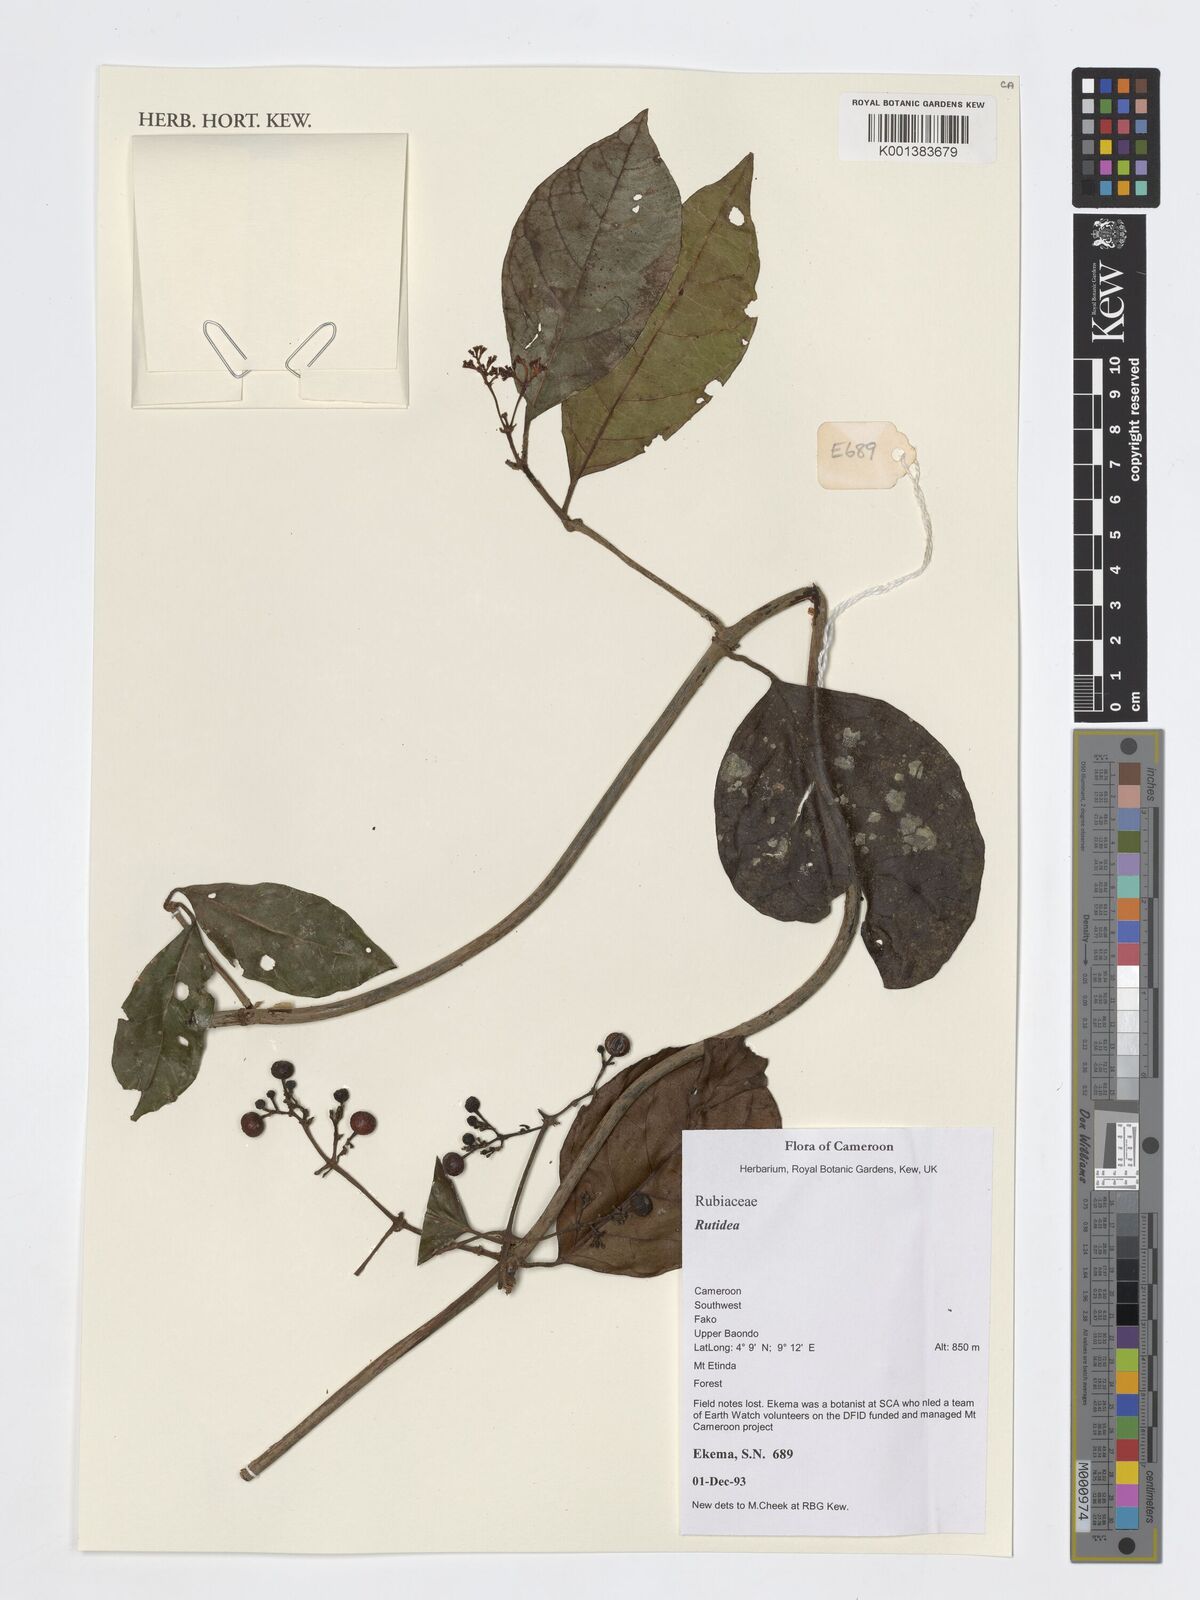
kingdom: Plantae
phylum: Tracheophyta
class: Magnoliopsida
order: Gentianales
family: Rubiaceae
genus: Rutidea
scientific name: Rutidea
